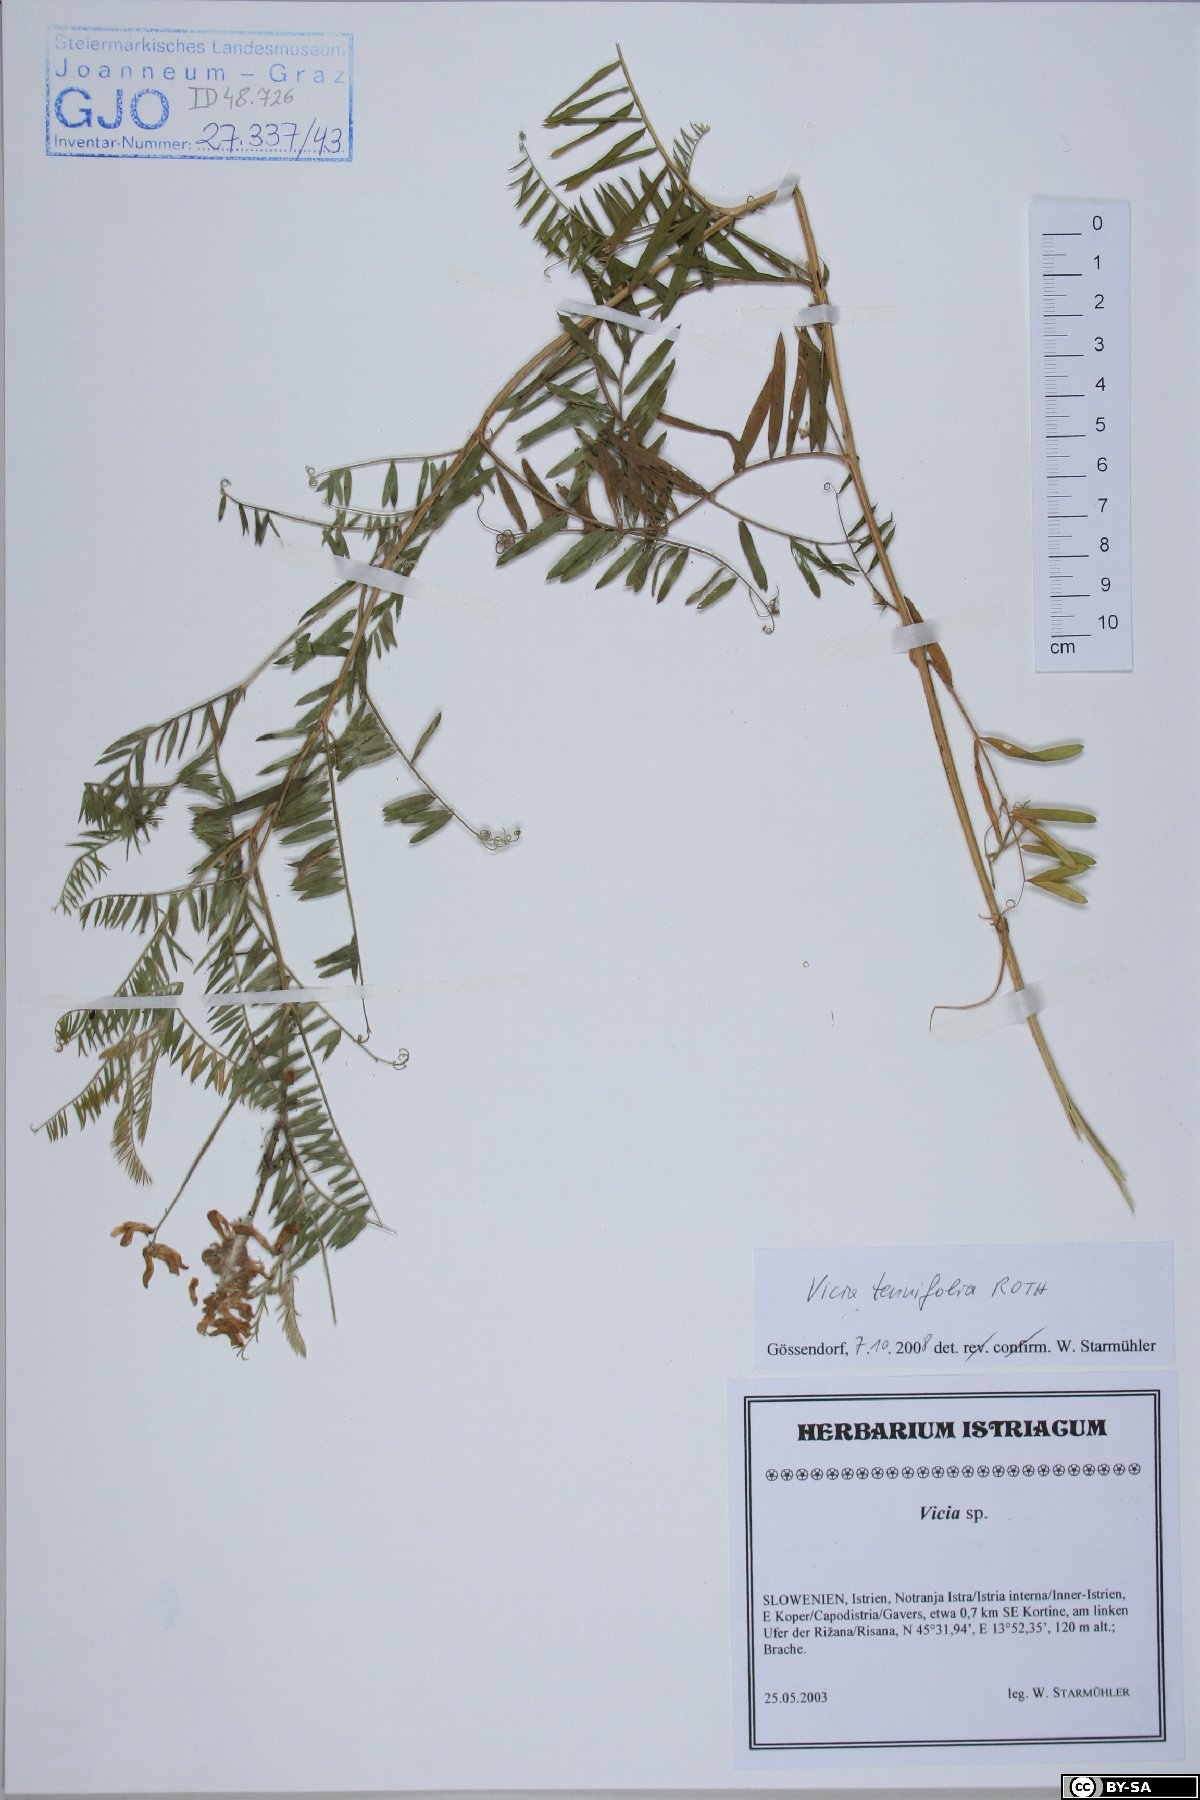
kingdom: Plantae
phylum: Tracheophyta
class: Magnoliopsida
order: Fabales
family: Fabaceae
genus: Vicia
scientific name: Vicia tenuifolia
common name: Fine-leaved vetch
